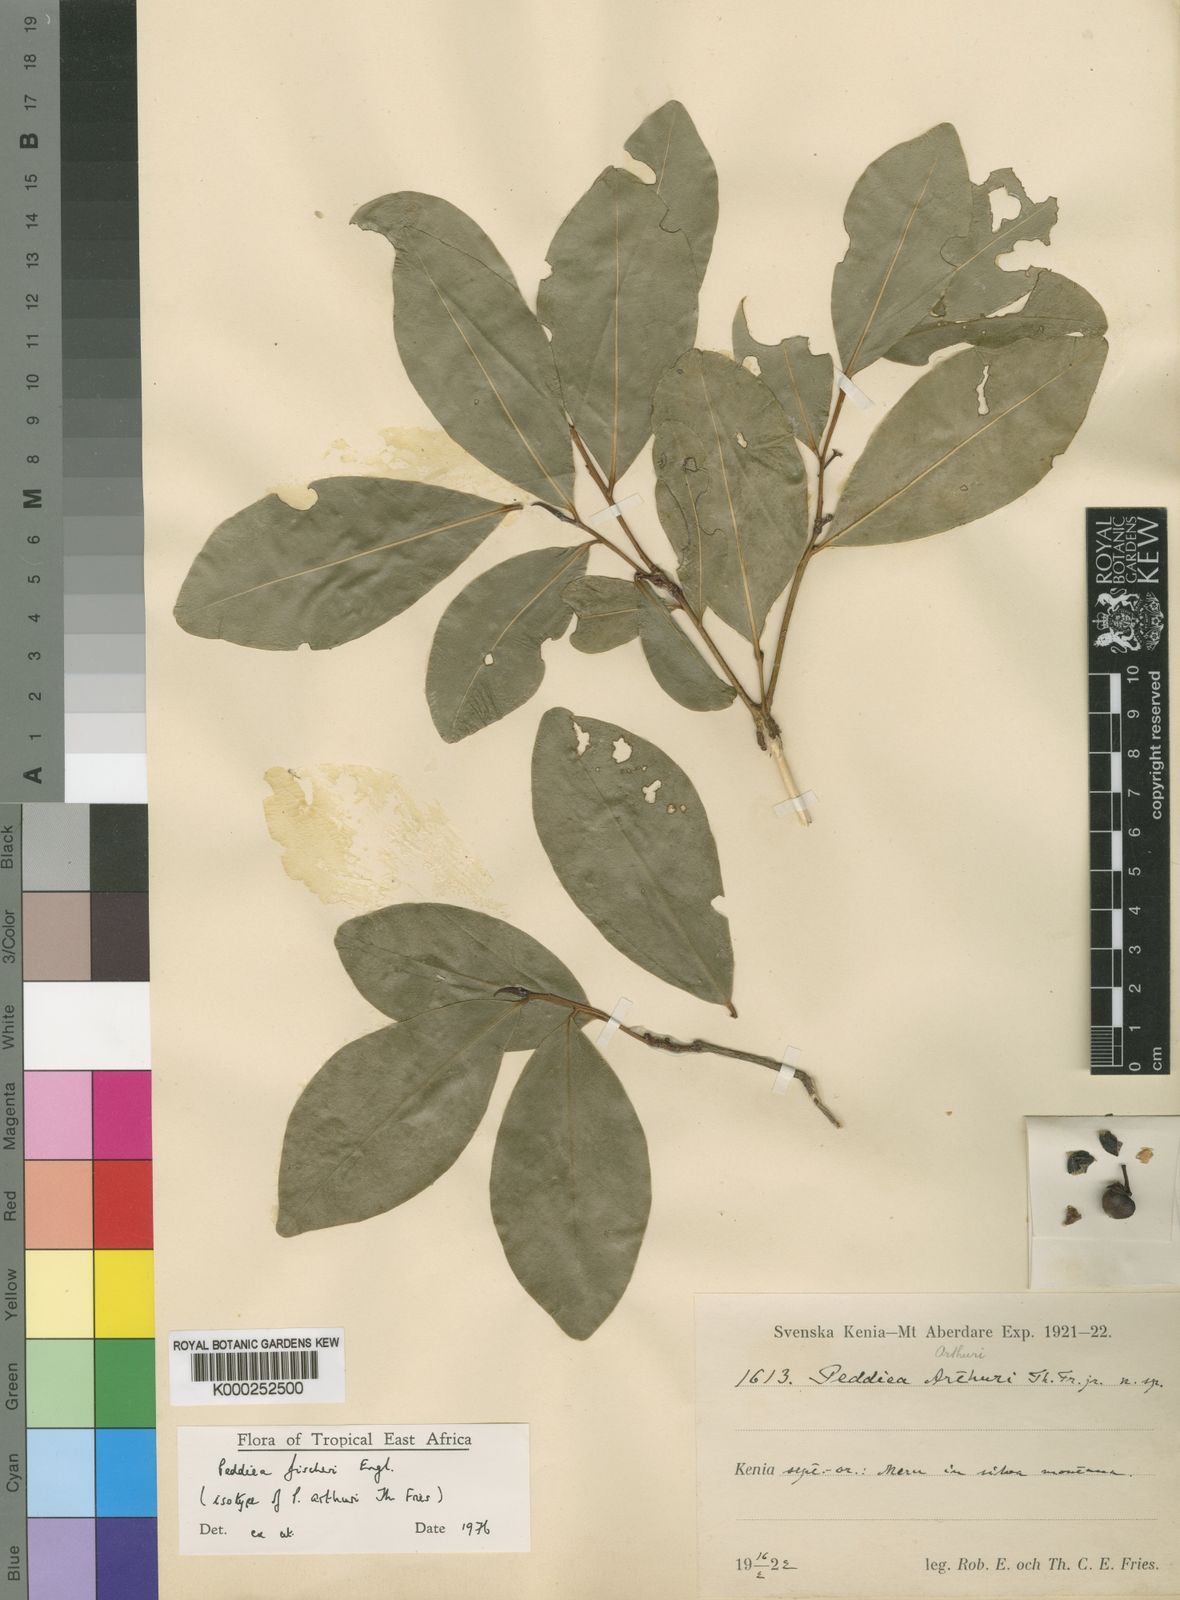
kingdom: Plantae
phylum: Tracheophyta
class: Magnoliopsida
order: Malvales
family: Thymelaeaceae
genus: Peddiea
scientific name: Peddiea fischeri
